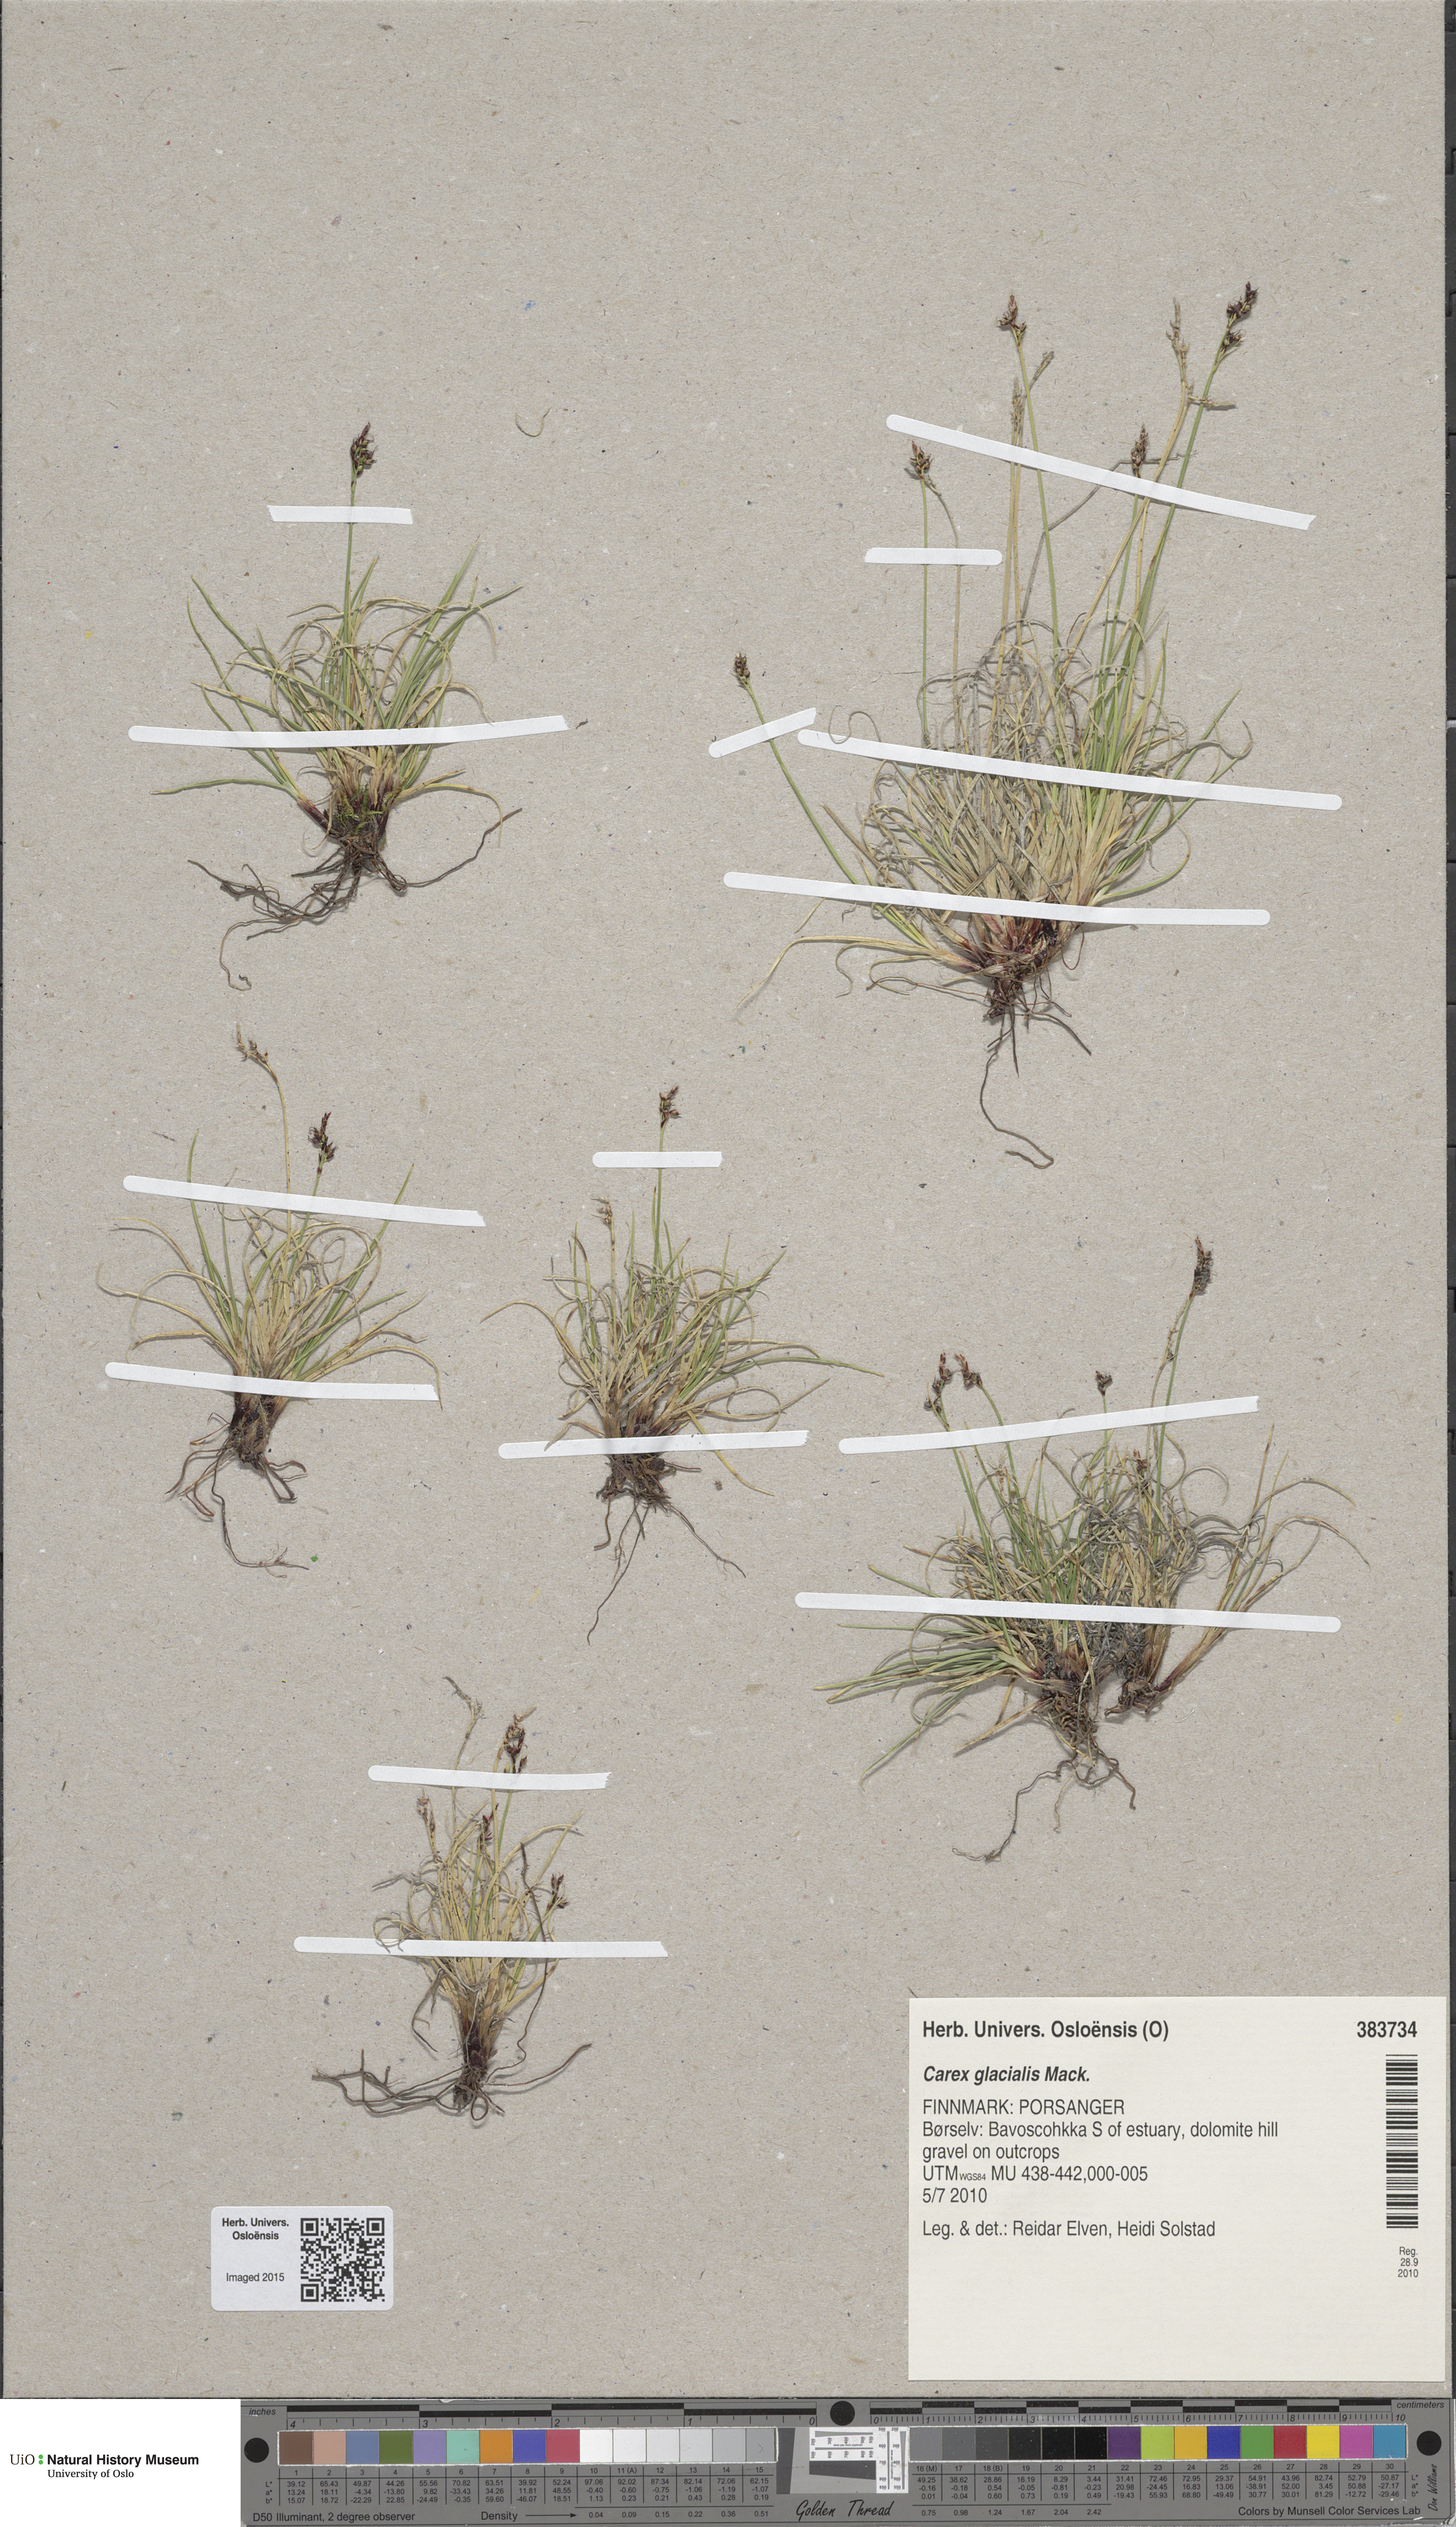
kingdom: Plantae
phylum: Tracheophyta
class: Liliopsida
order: Poales
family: Cyperaceae
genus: Carex
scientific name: Carex glacialis
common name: Newfoundland sedge
